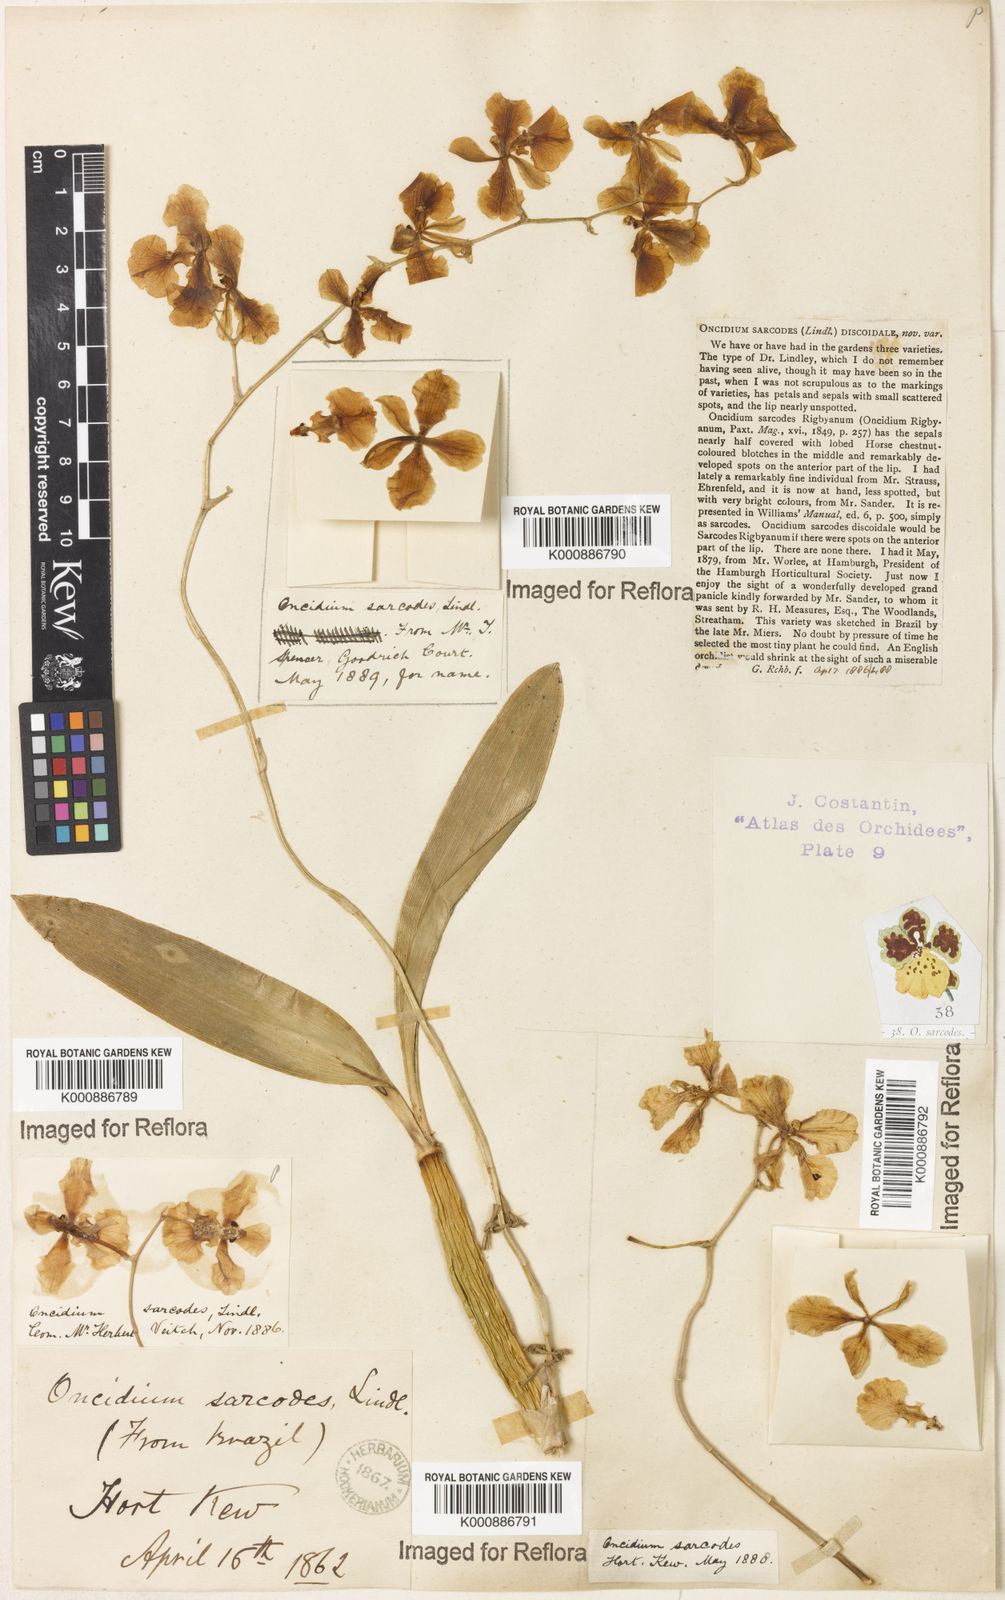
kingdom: Plantae
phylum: Tracheophyta
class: Liliopsida
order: Asparagales
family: Orchidaceae
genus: Gomesa
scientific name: Gomesa sarcodes
